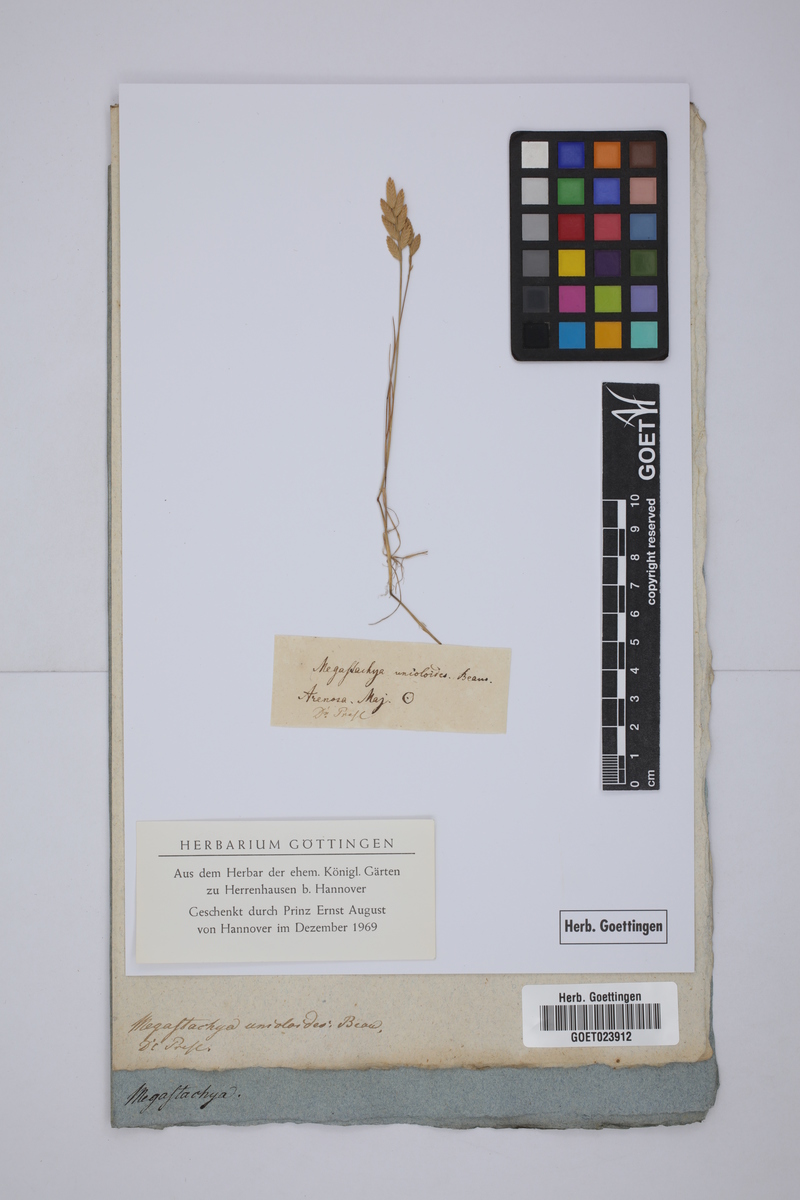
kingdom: Plantae
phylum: Tracheophyta
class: Liliopsida
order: Poales
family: Poaceae
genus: Halopyrum
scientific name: Halopyrum mucronatum
